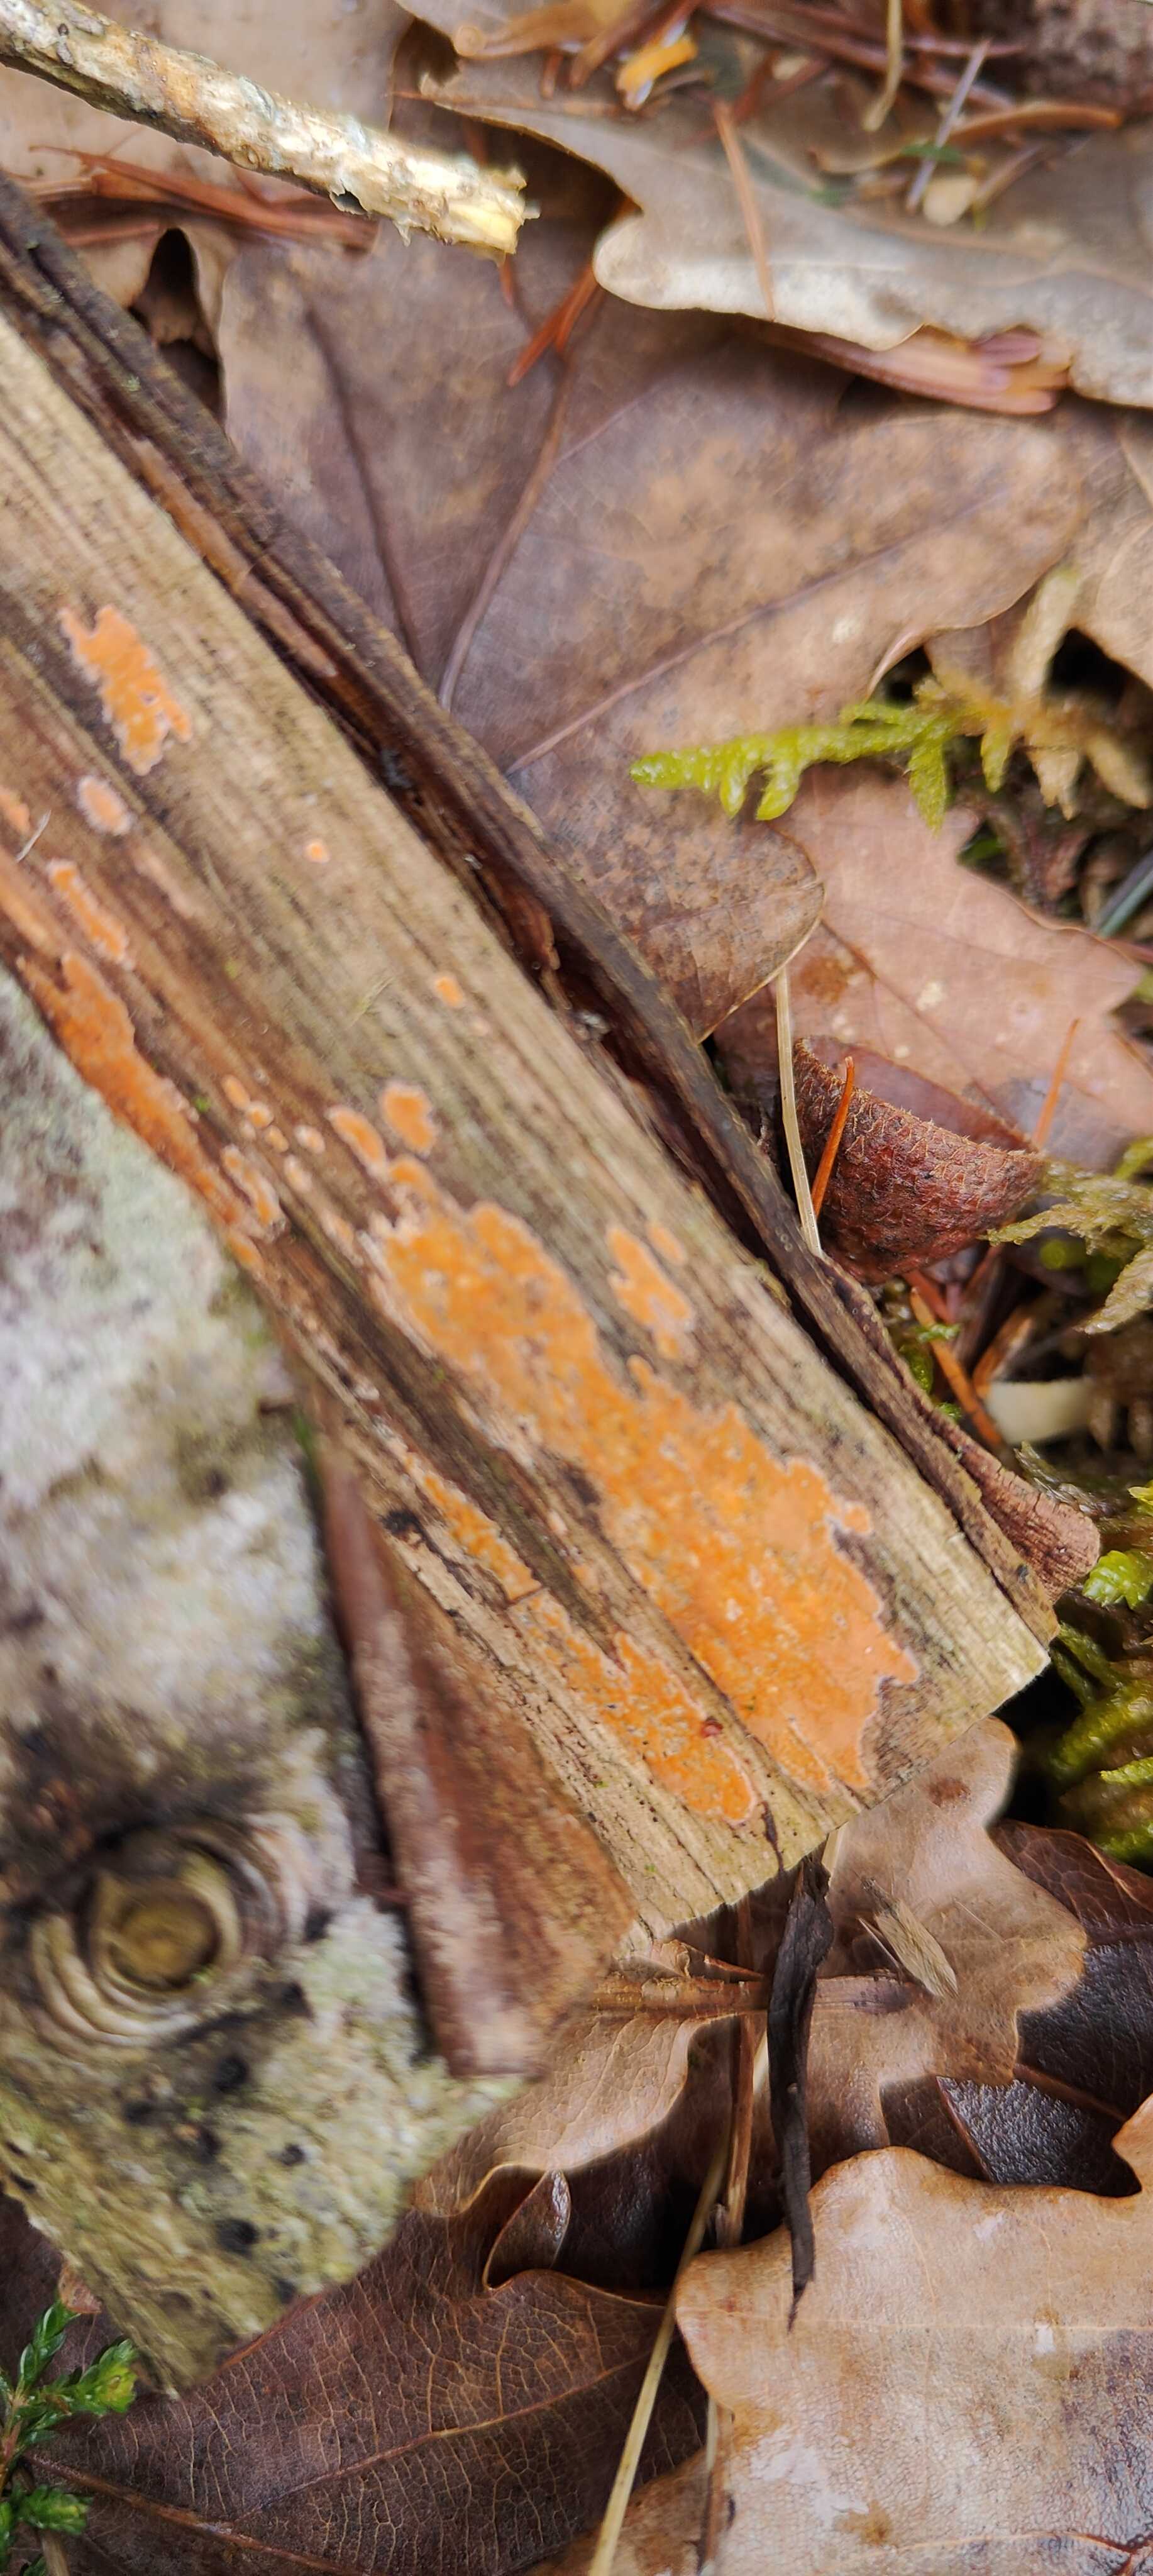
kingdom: Fungi
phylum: Basidiomycota
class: Agaricomycetes
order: Russulales
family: Peniophoraceae
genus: Peniophora
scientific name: Peniophora incarnata
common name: laksefarvet voksskind
